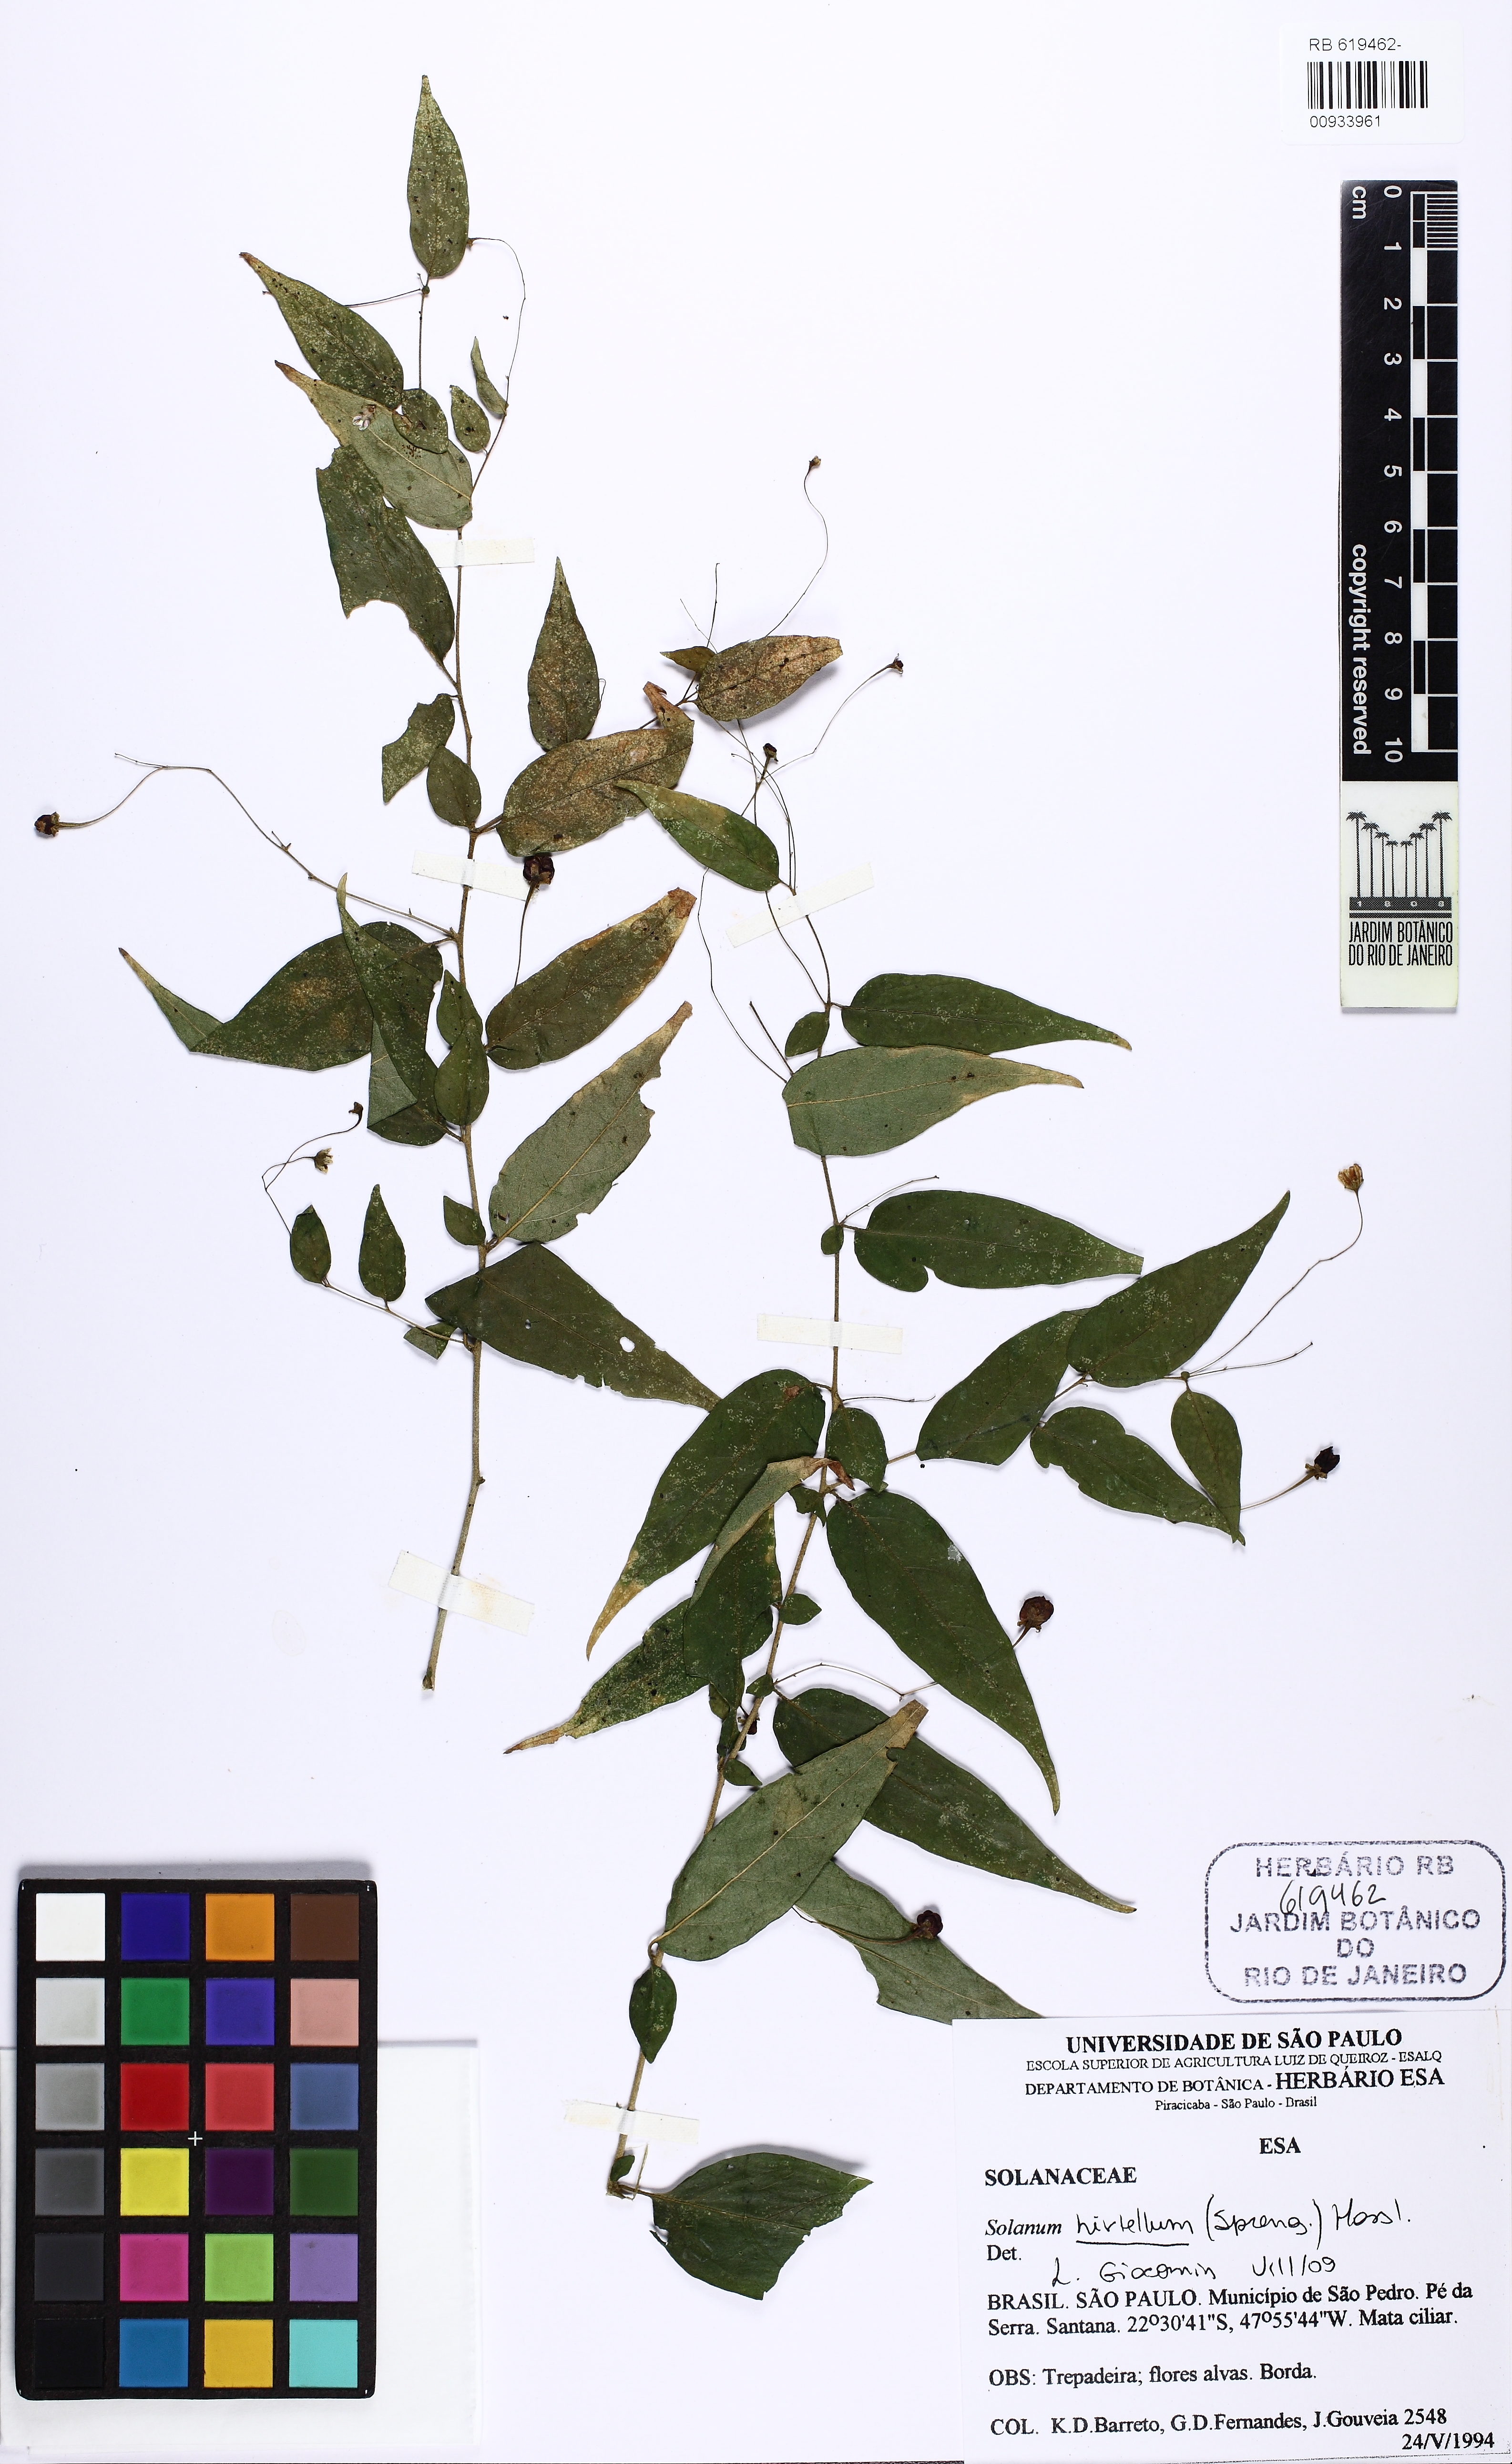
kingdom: Plantae
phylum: Tracheophyta
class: Magnoliopsida
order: Solanales
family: Solanaceae
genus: Solanum
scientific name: Solanum hirtellum
